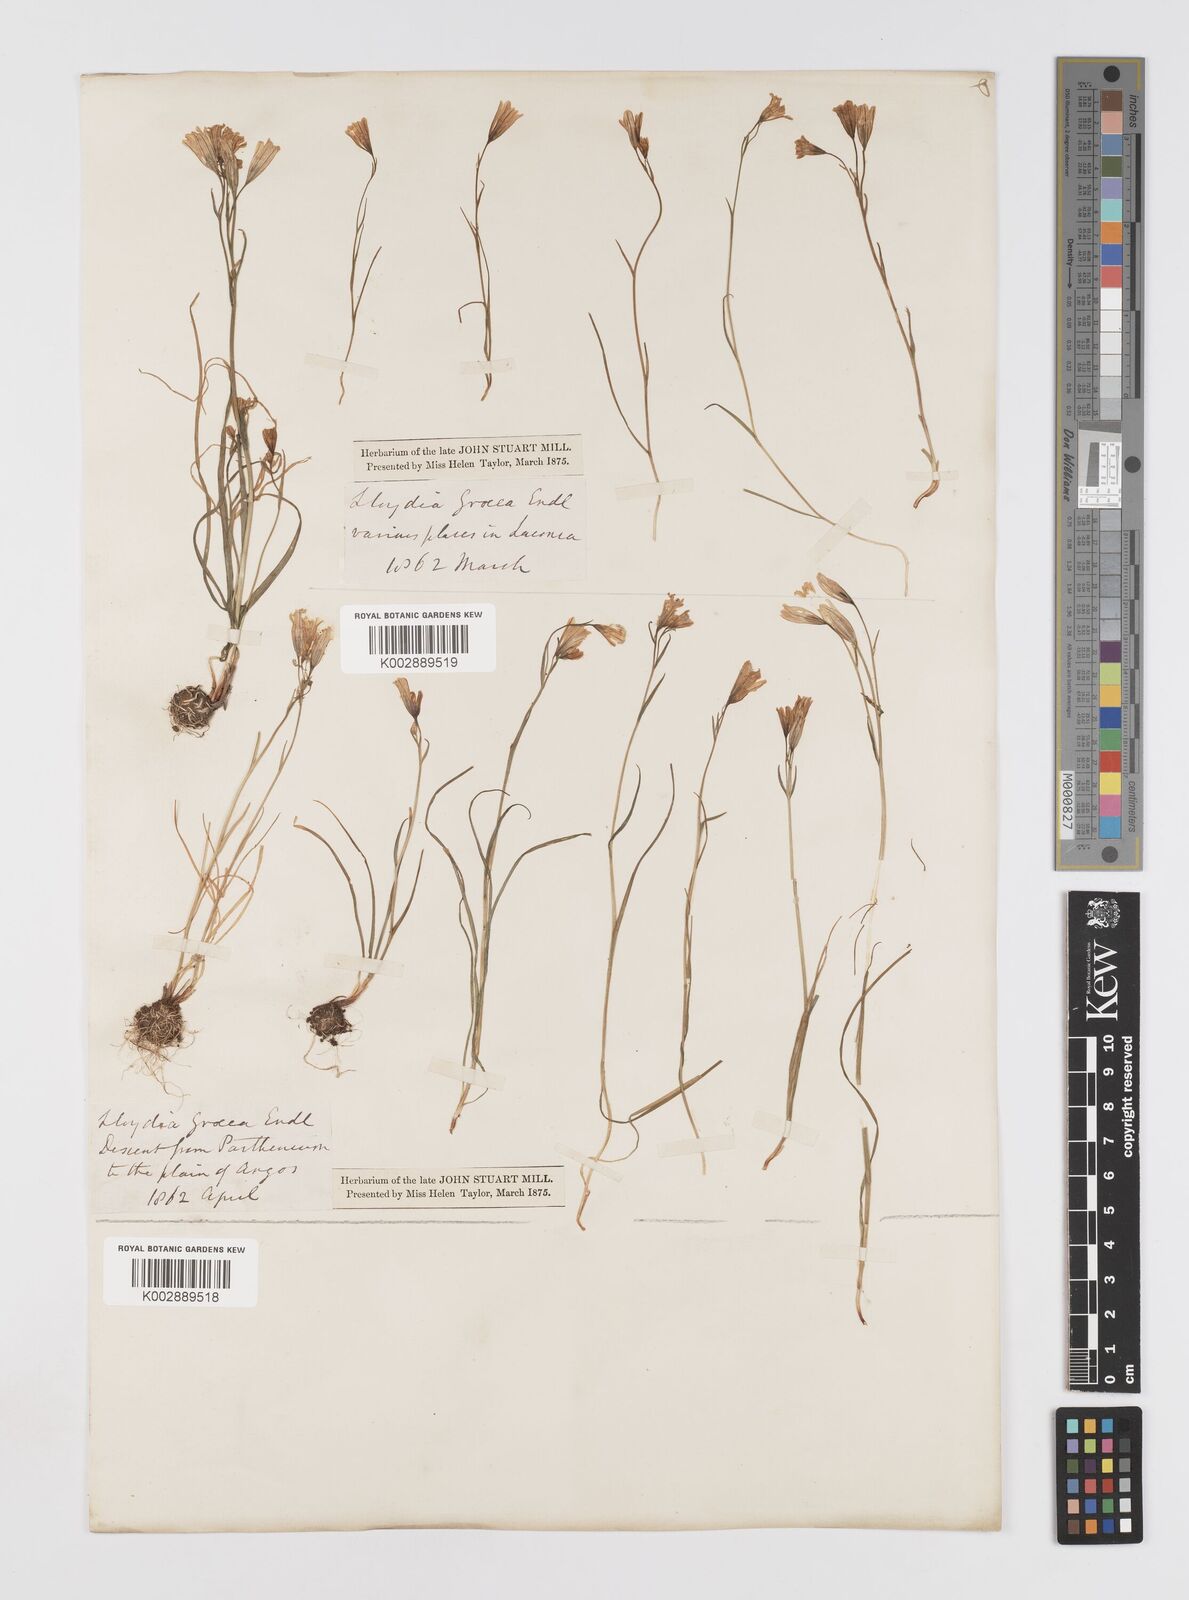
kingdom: Plantae
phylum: Tracheophyta
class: Liliopsida
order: Liliales
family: Liliaceae
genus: Gagea
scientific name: Gagea graeca
